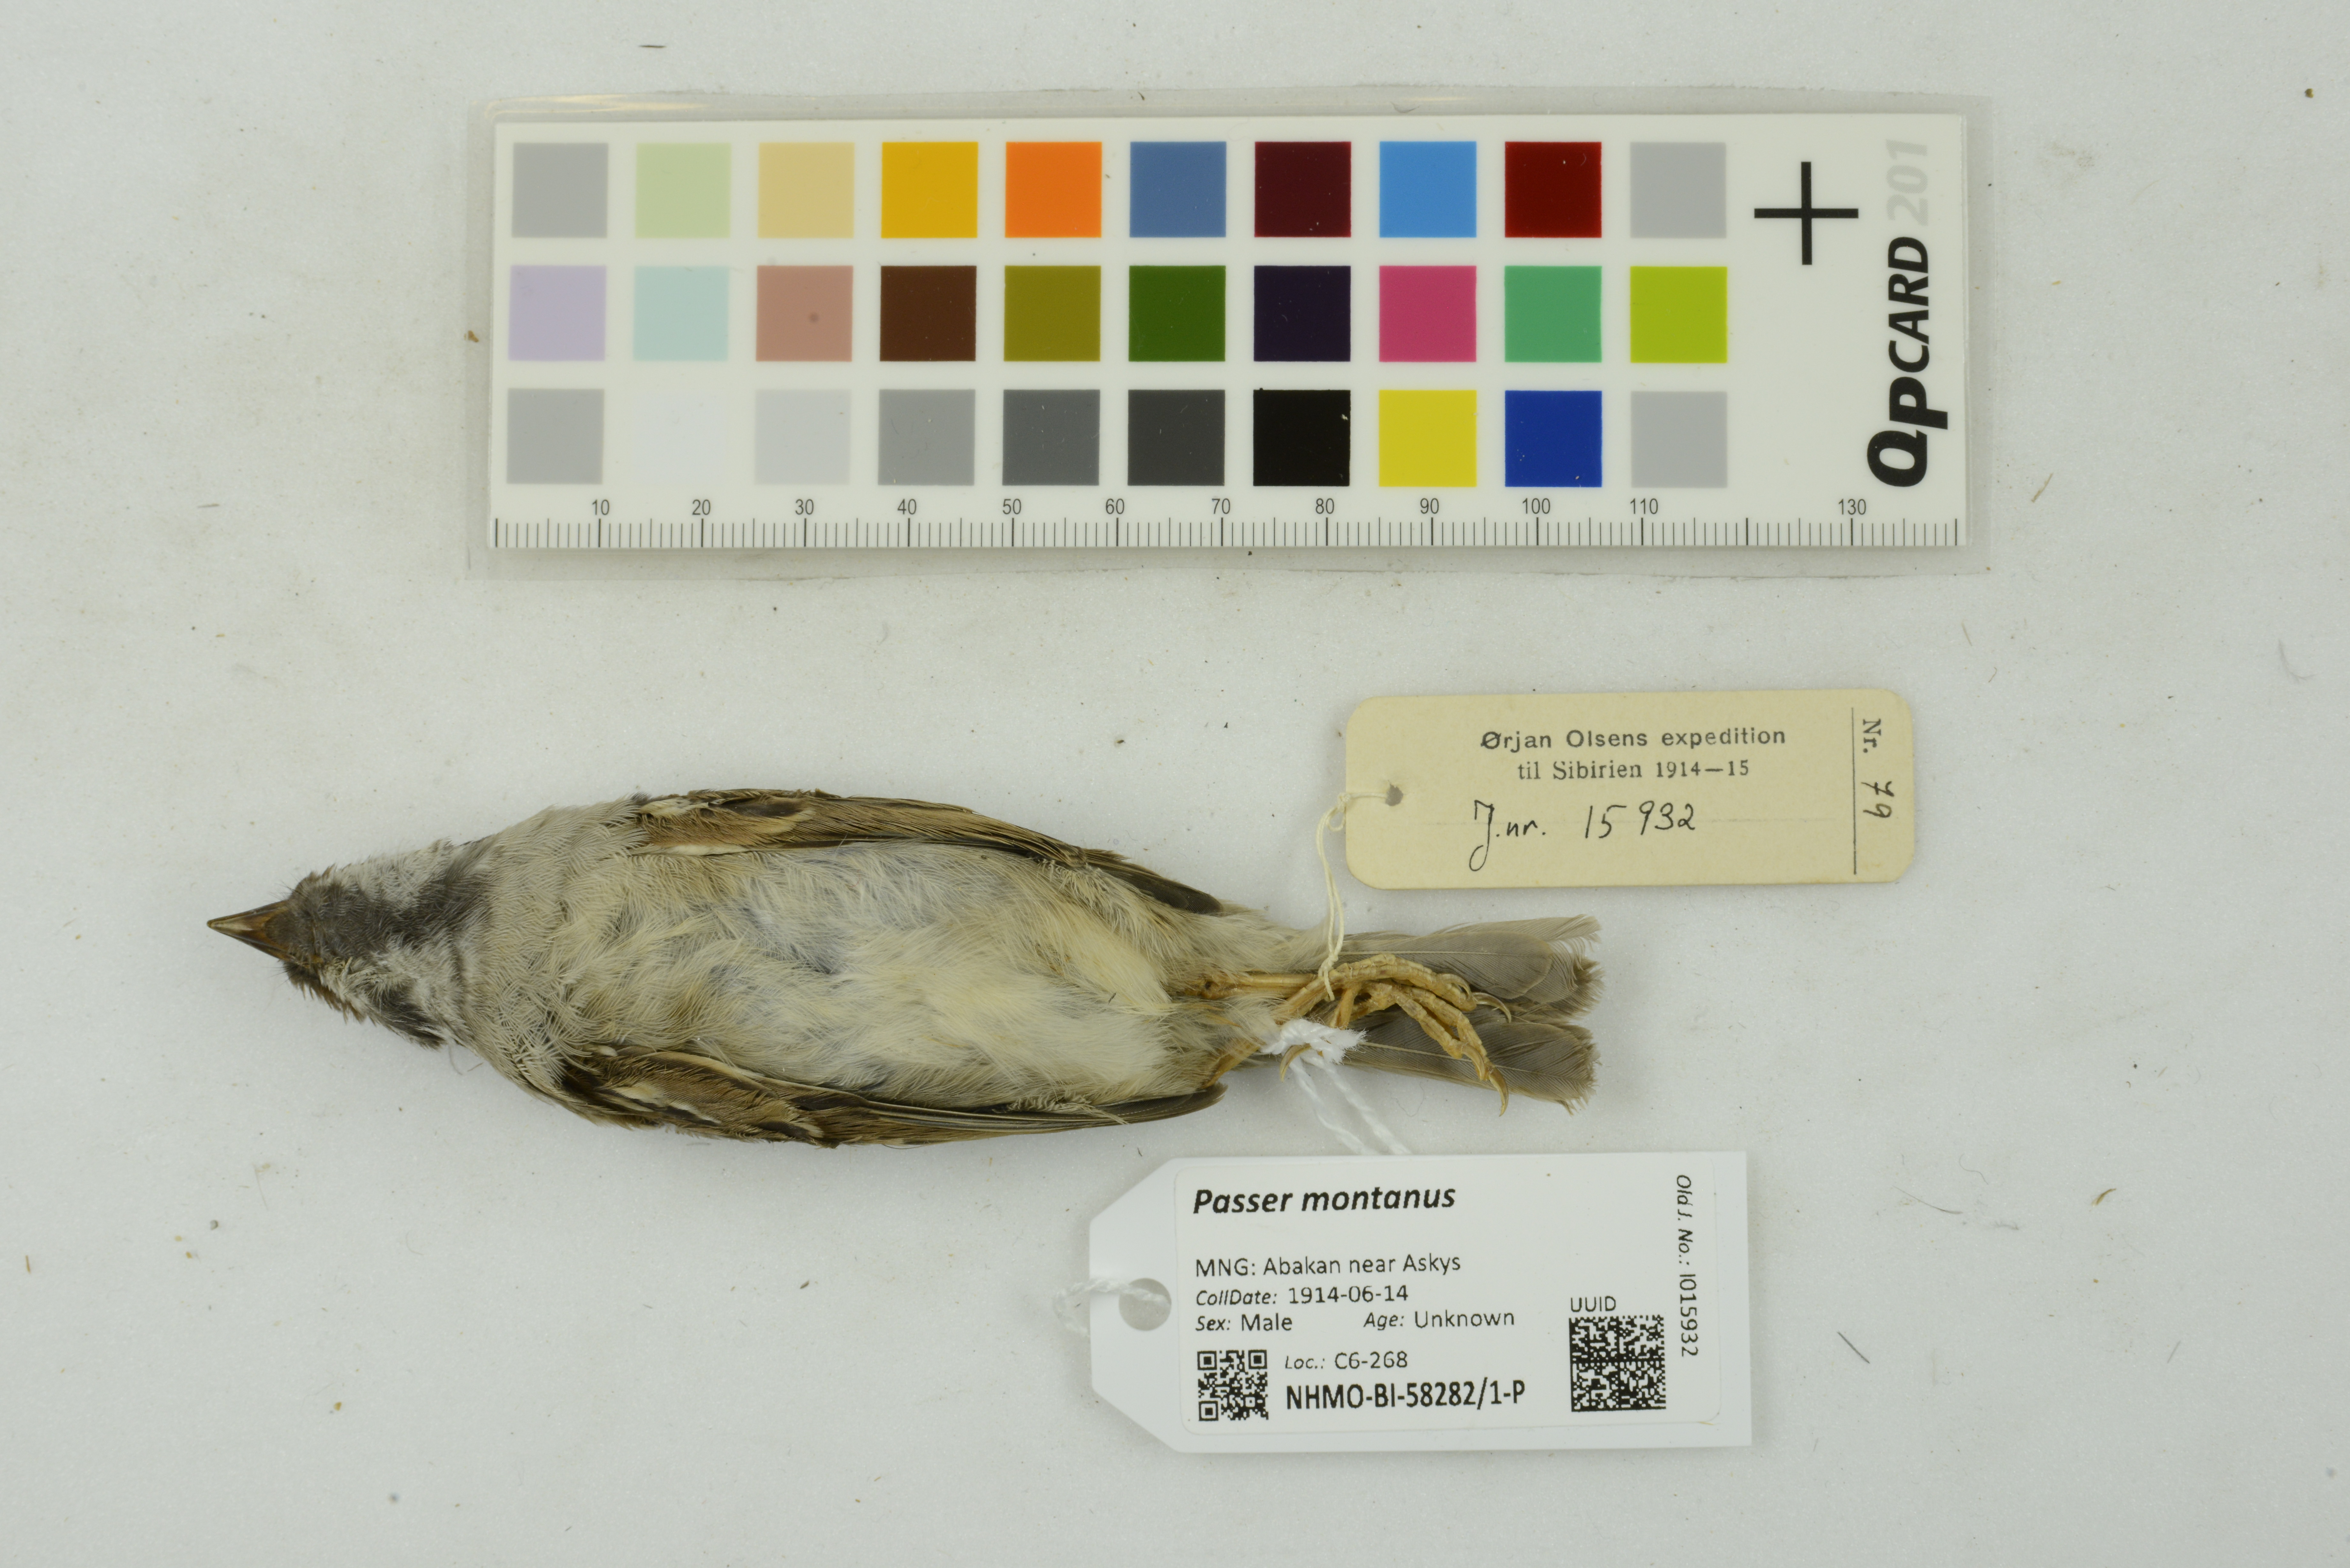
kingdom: Animalia
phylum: Chordata
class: Aves
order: Passeriformes
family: Passeridae
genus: Passer
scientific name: Passer montanus
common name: Eurasian tree sparrow
